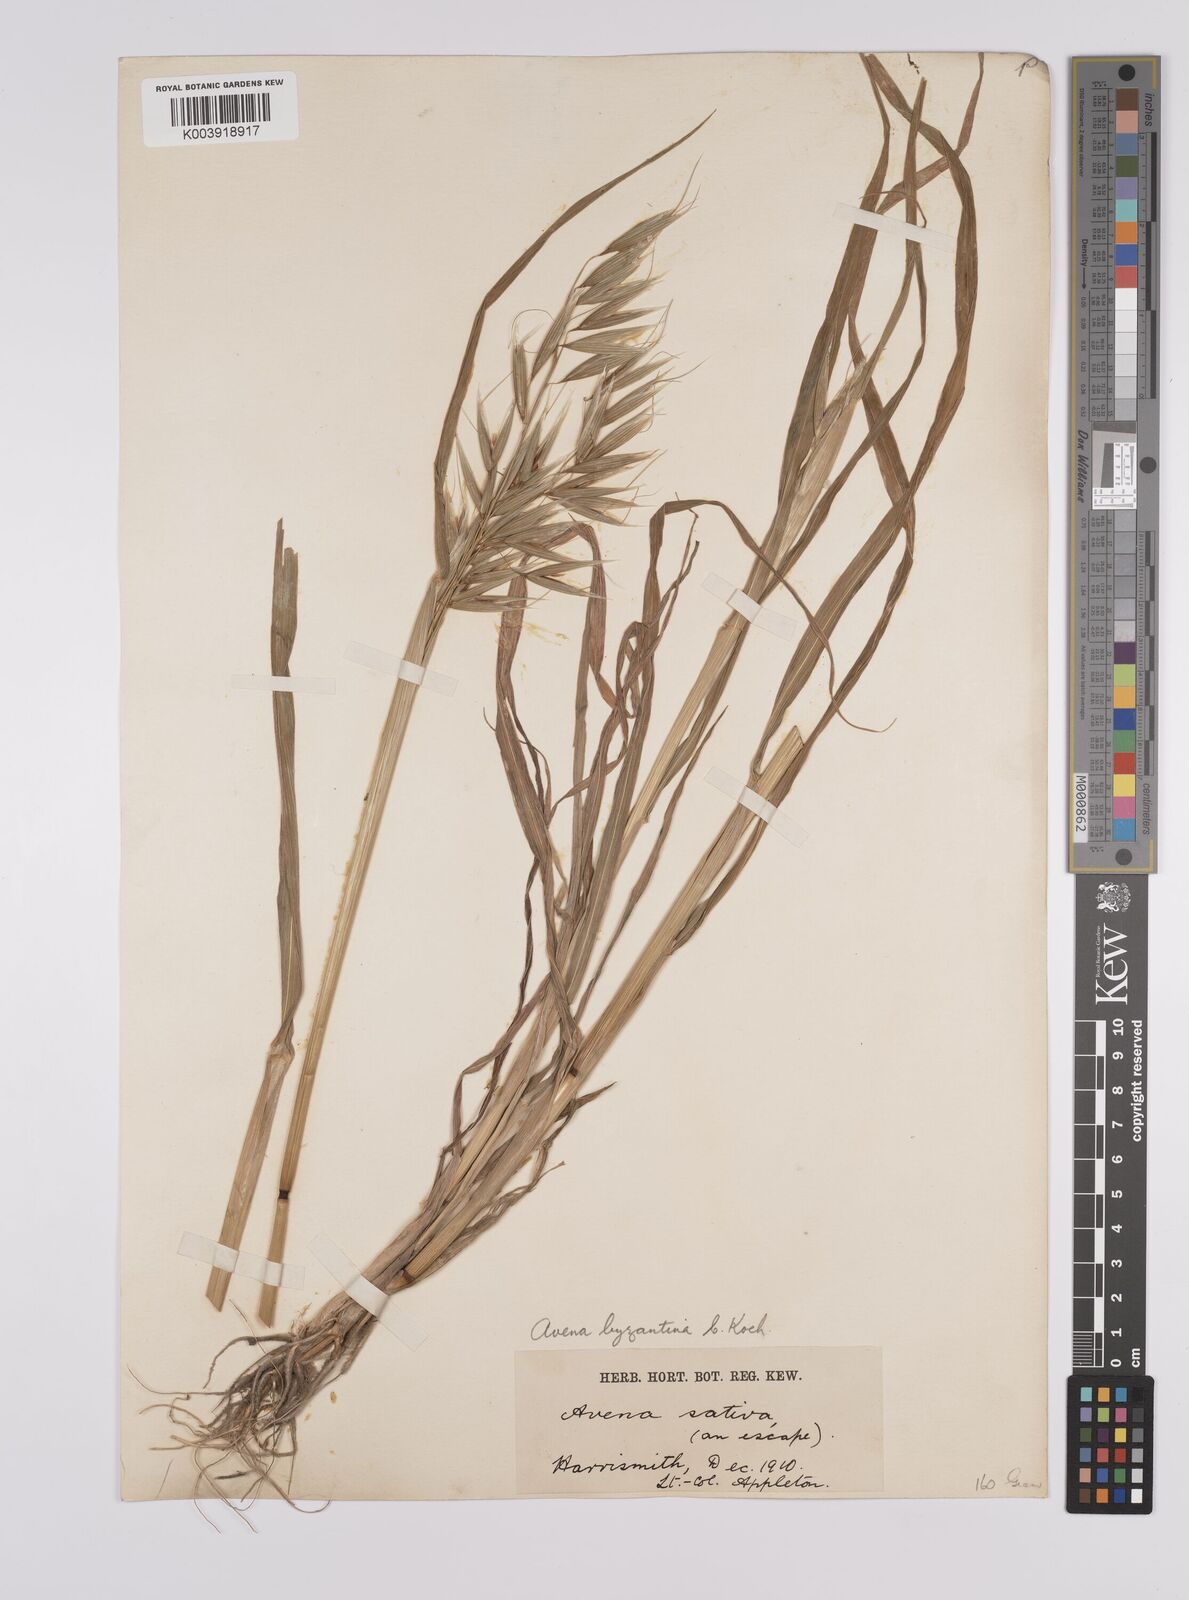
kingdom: Plantae
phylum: Tracheophyta
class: Liliopsida
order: Poales
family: Poaceae
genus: Avena
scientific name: Avena byzantina
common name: Algerian oat
